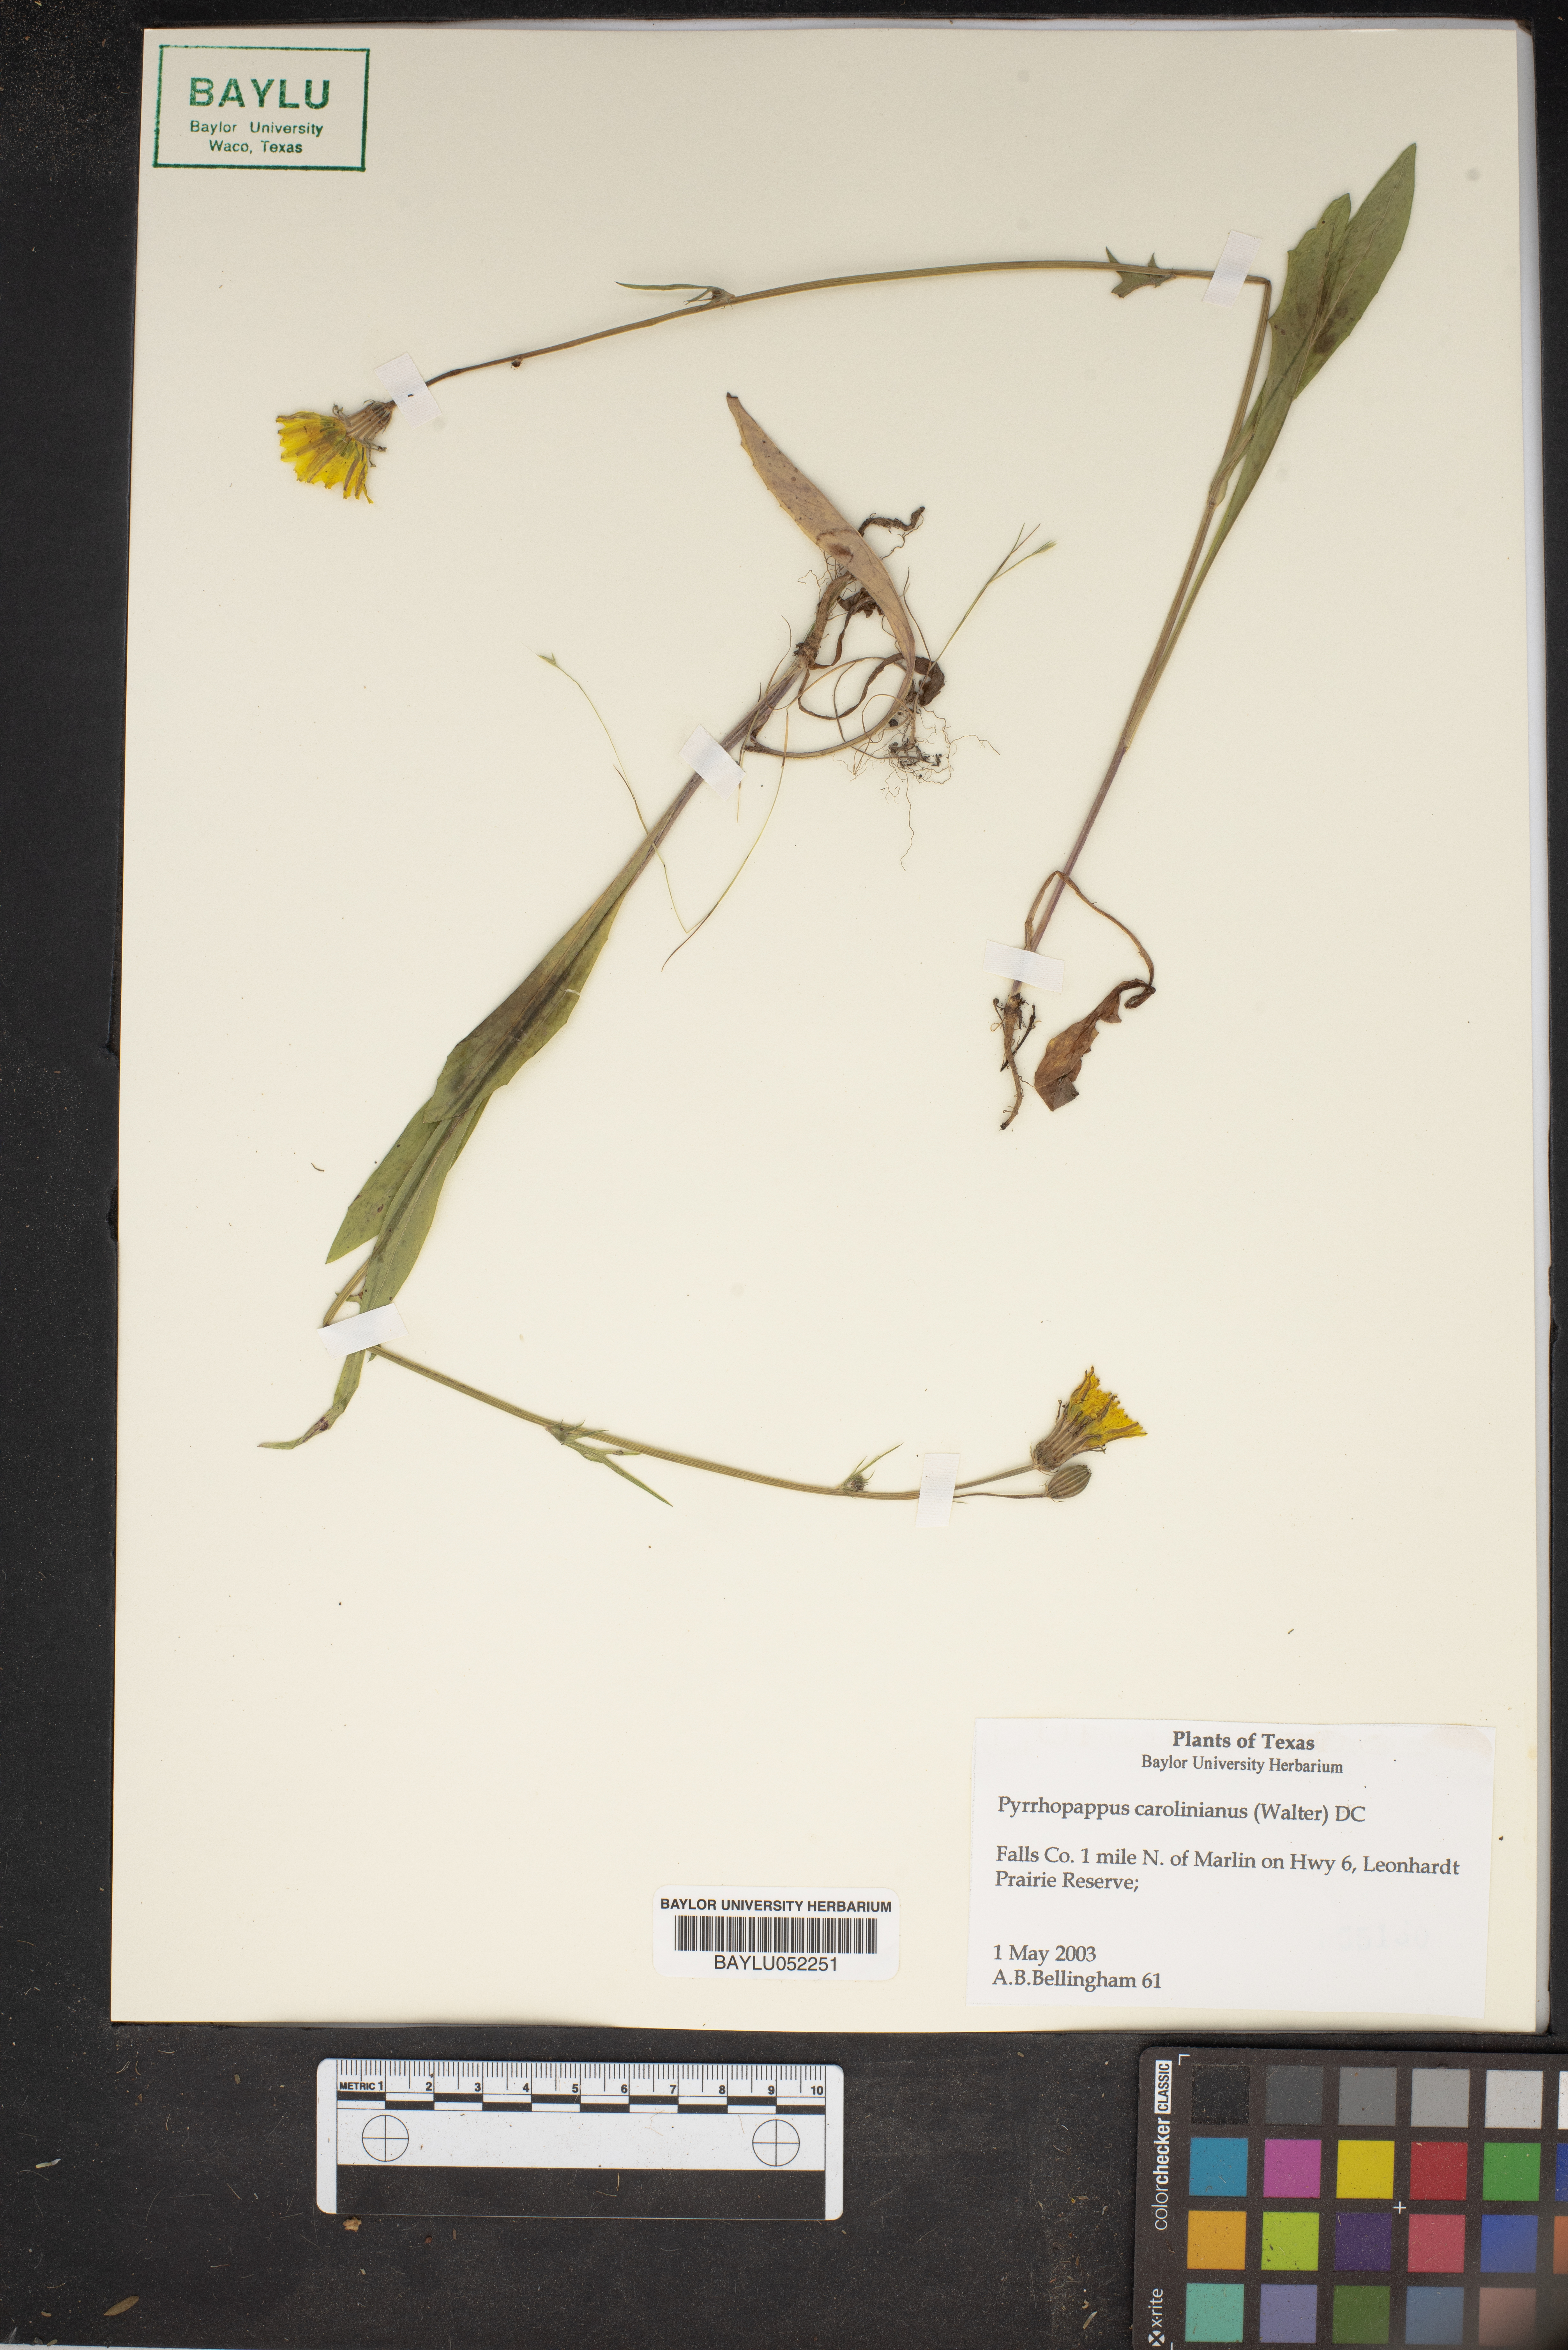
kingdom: Plantae
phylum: Tracheophyta
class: Magnoliopsida
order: Asterales
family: Asteraceae
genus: Pyrrhopappus
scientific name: Pyrrhopappus carolinianus
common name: Carolina desert-chicory
